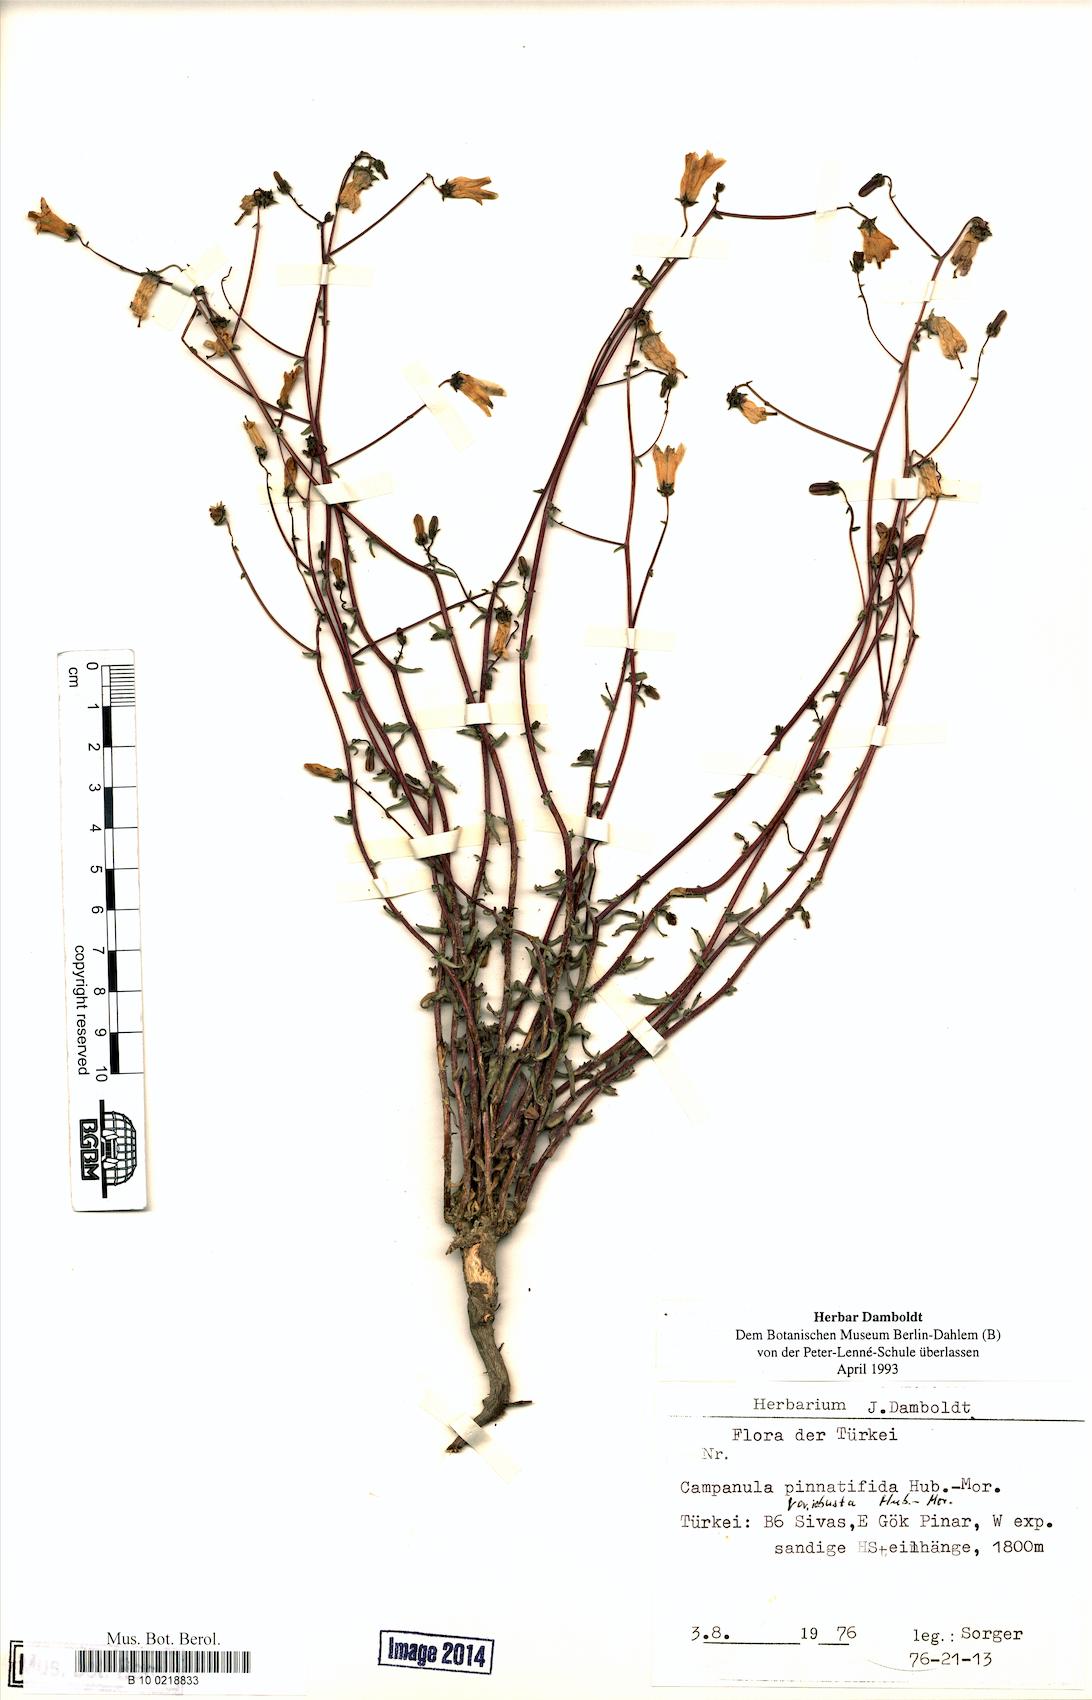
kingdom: Plantae
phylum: Tracheophyta
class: Magnoliopsida
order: Asterales
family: Campanulaceae
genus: Campanula
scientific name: Campanula pinnatifida
